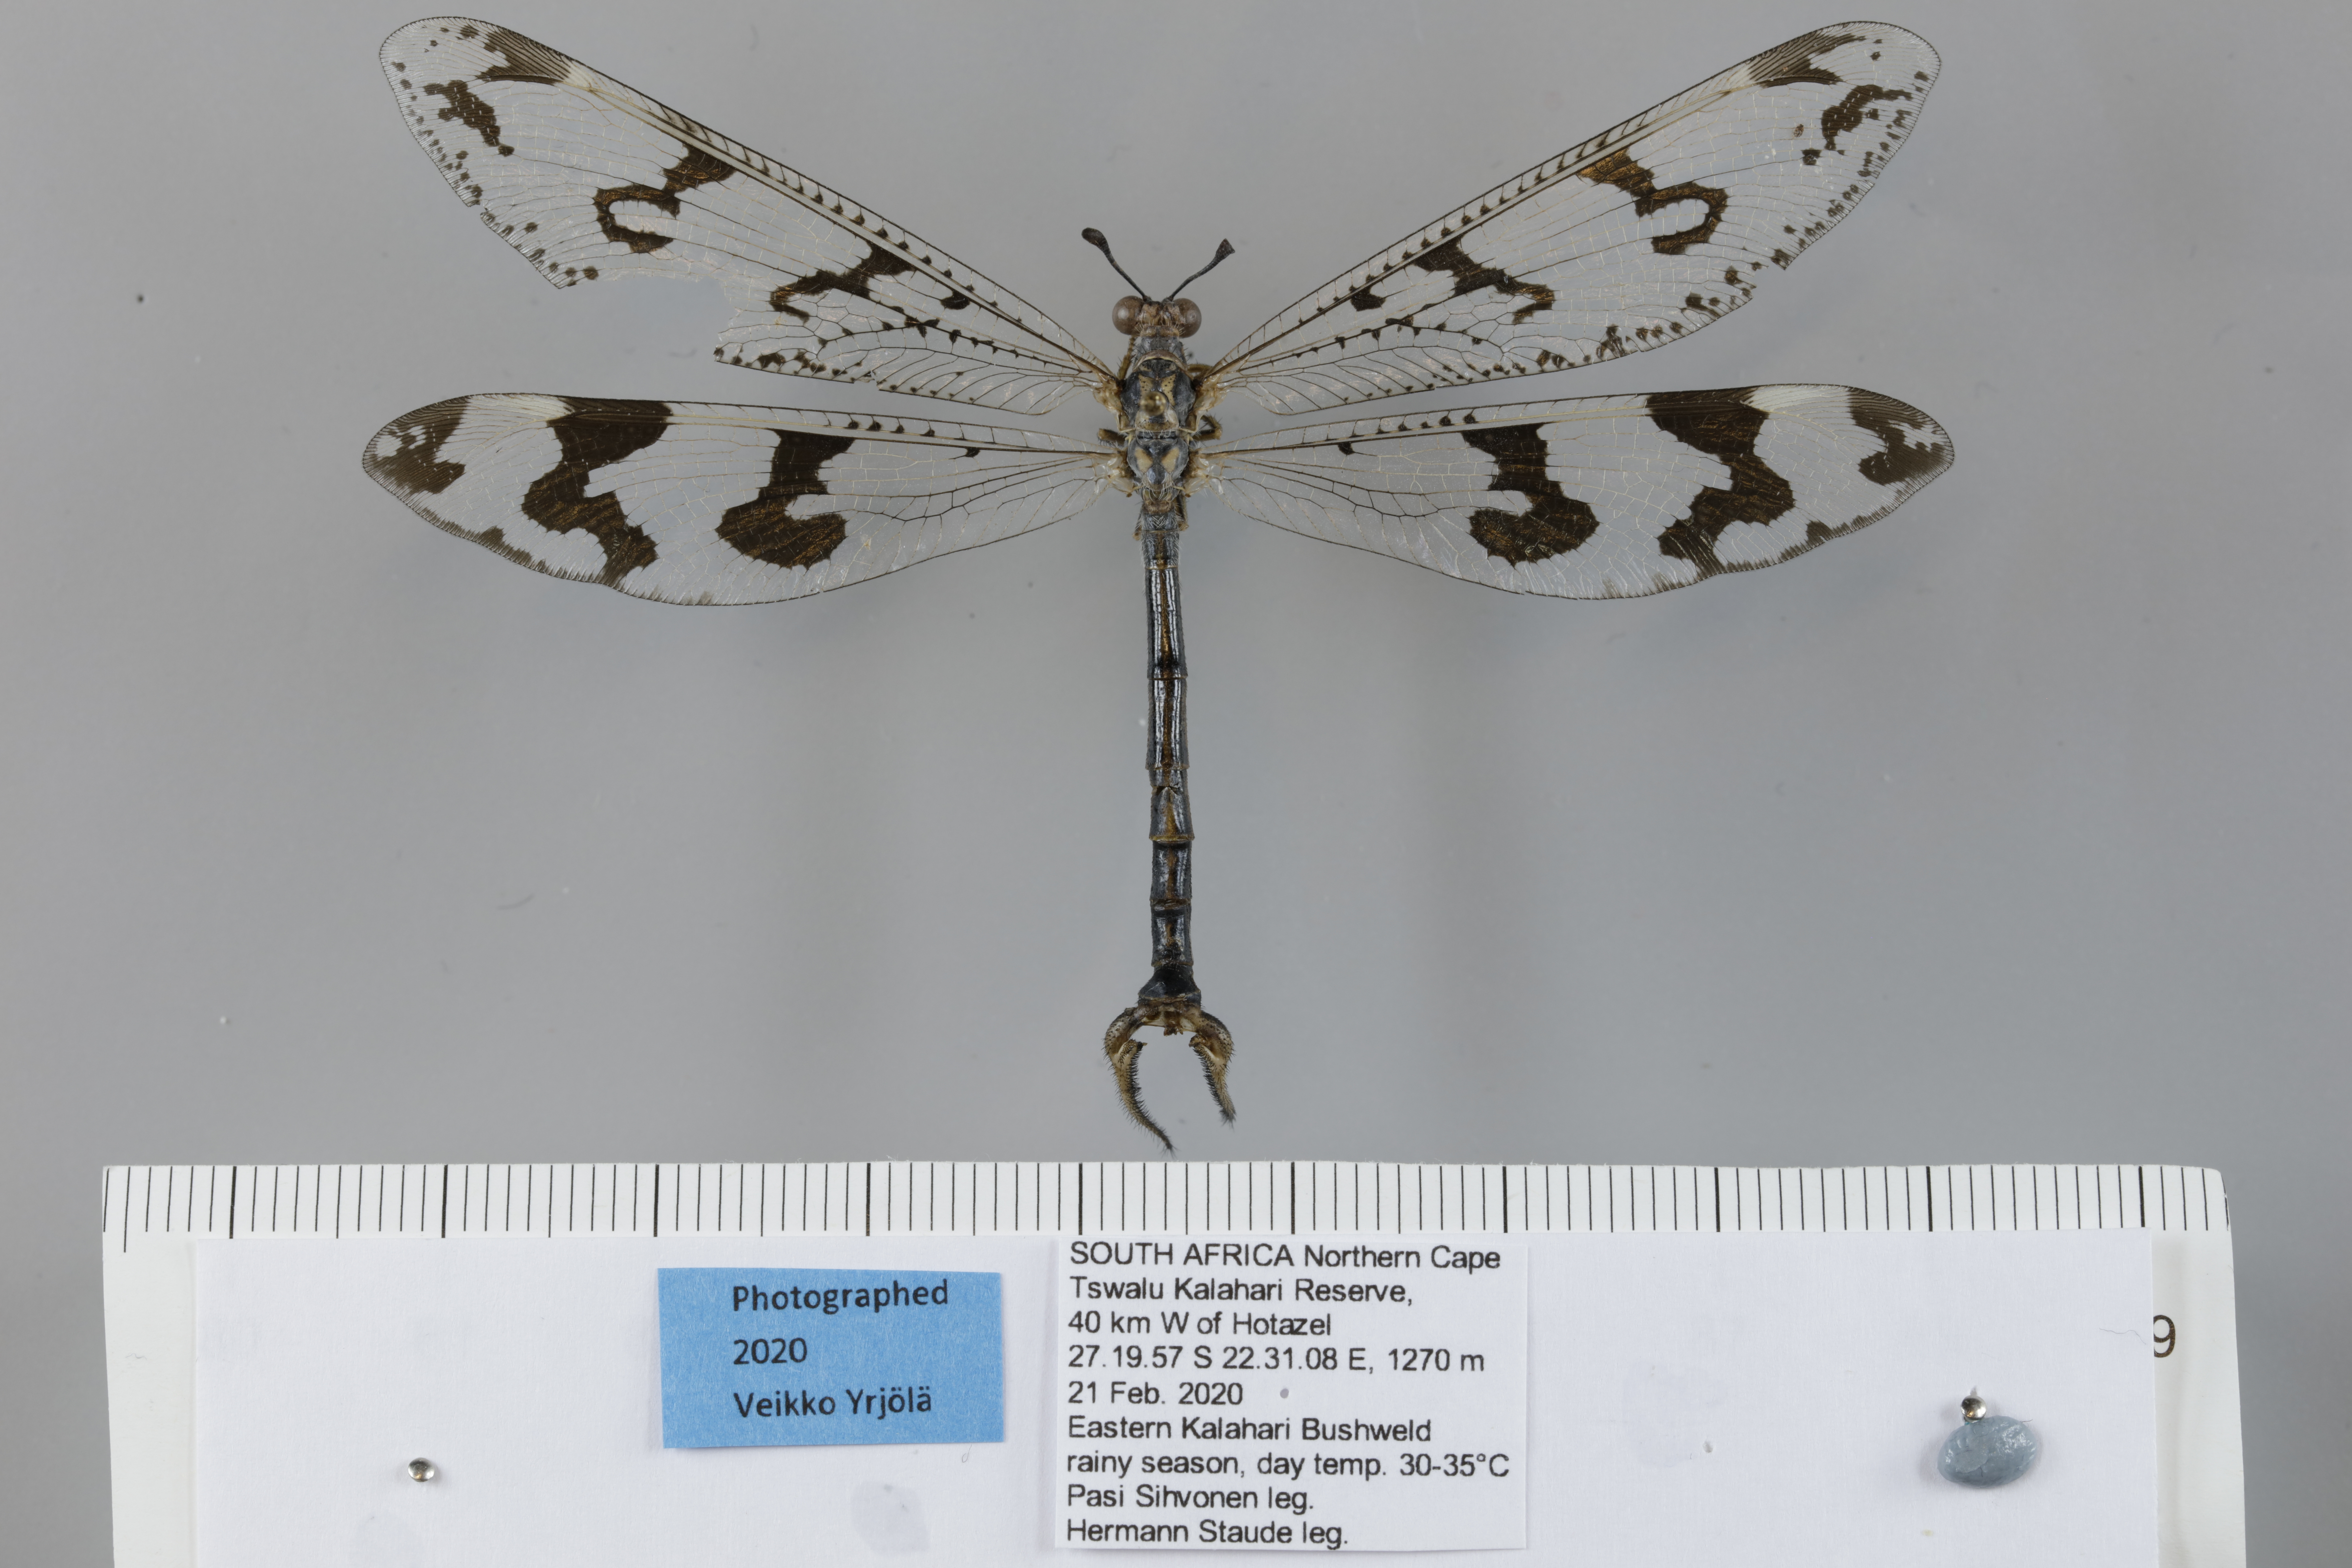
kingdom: Animalia
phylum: Arthropoda
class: Insecta
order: Neuroptera
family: Myrmeleontidae
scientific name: Myrmeleontidae
